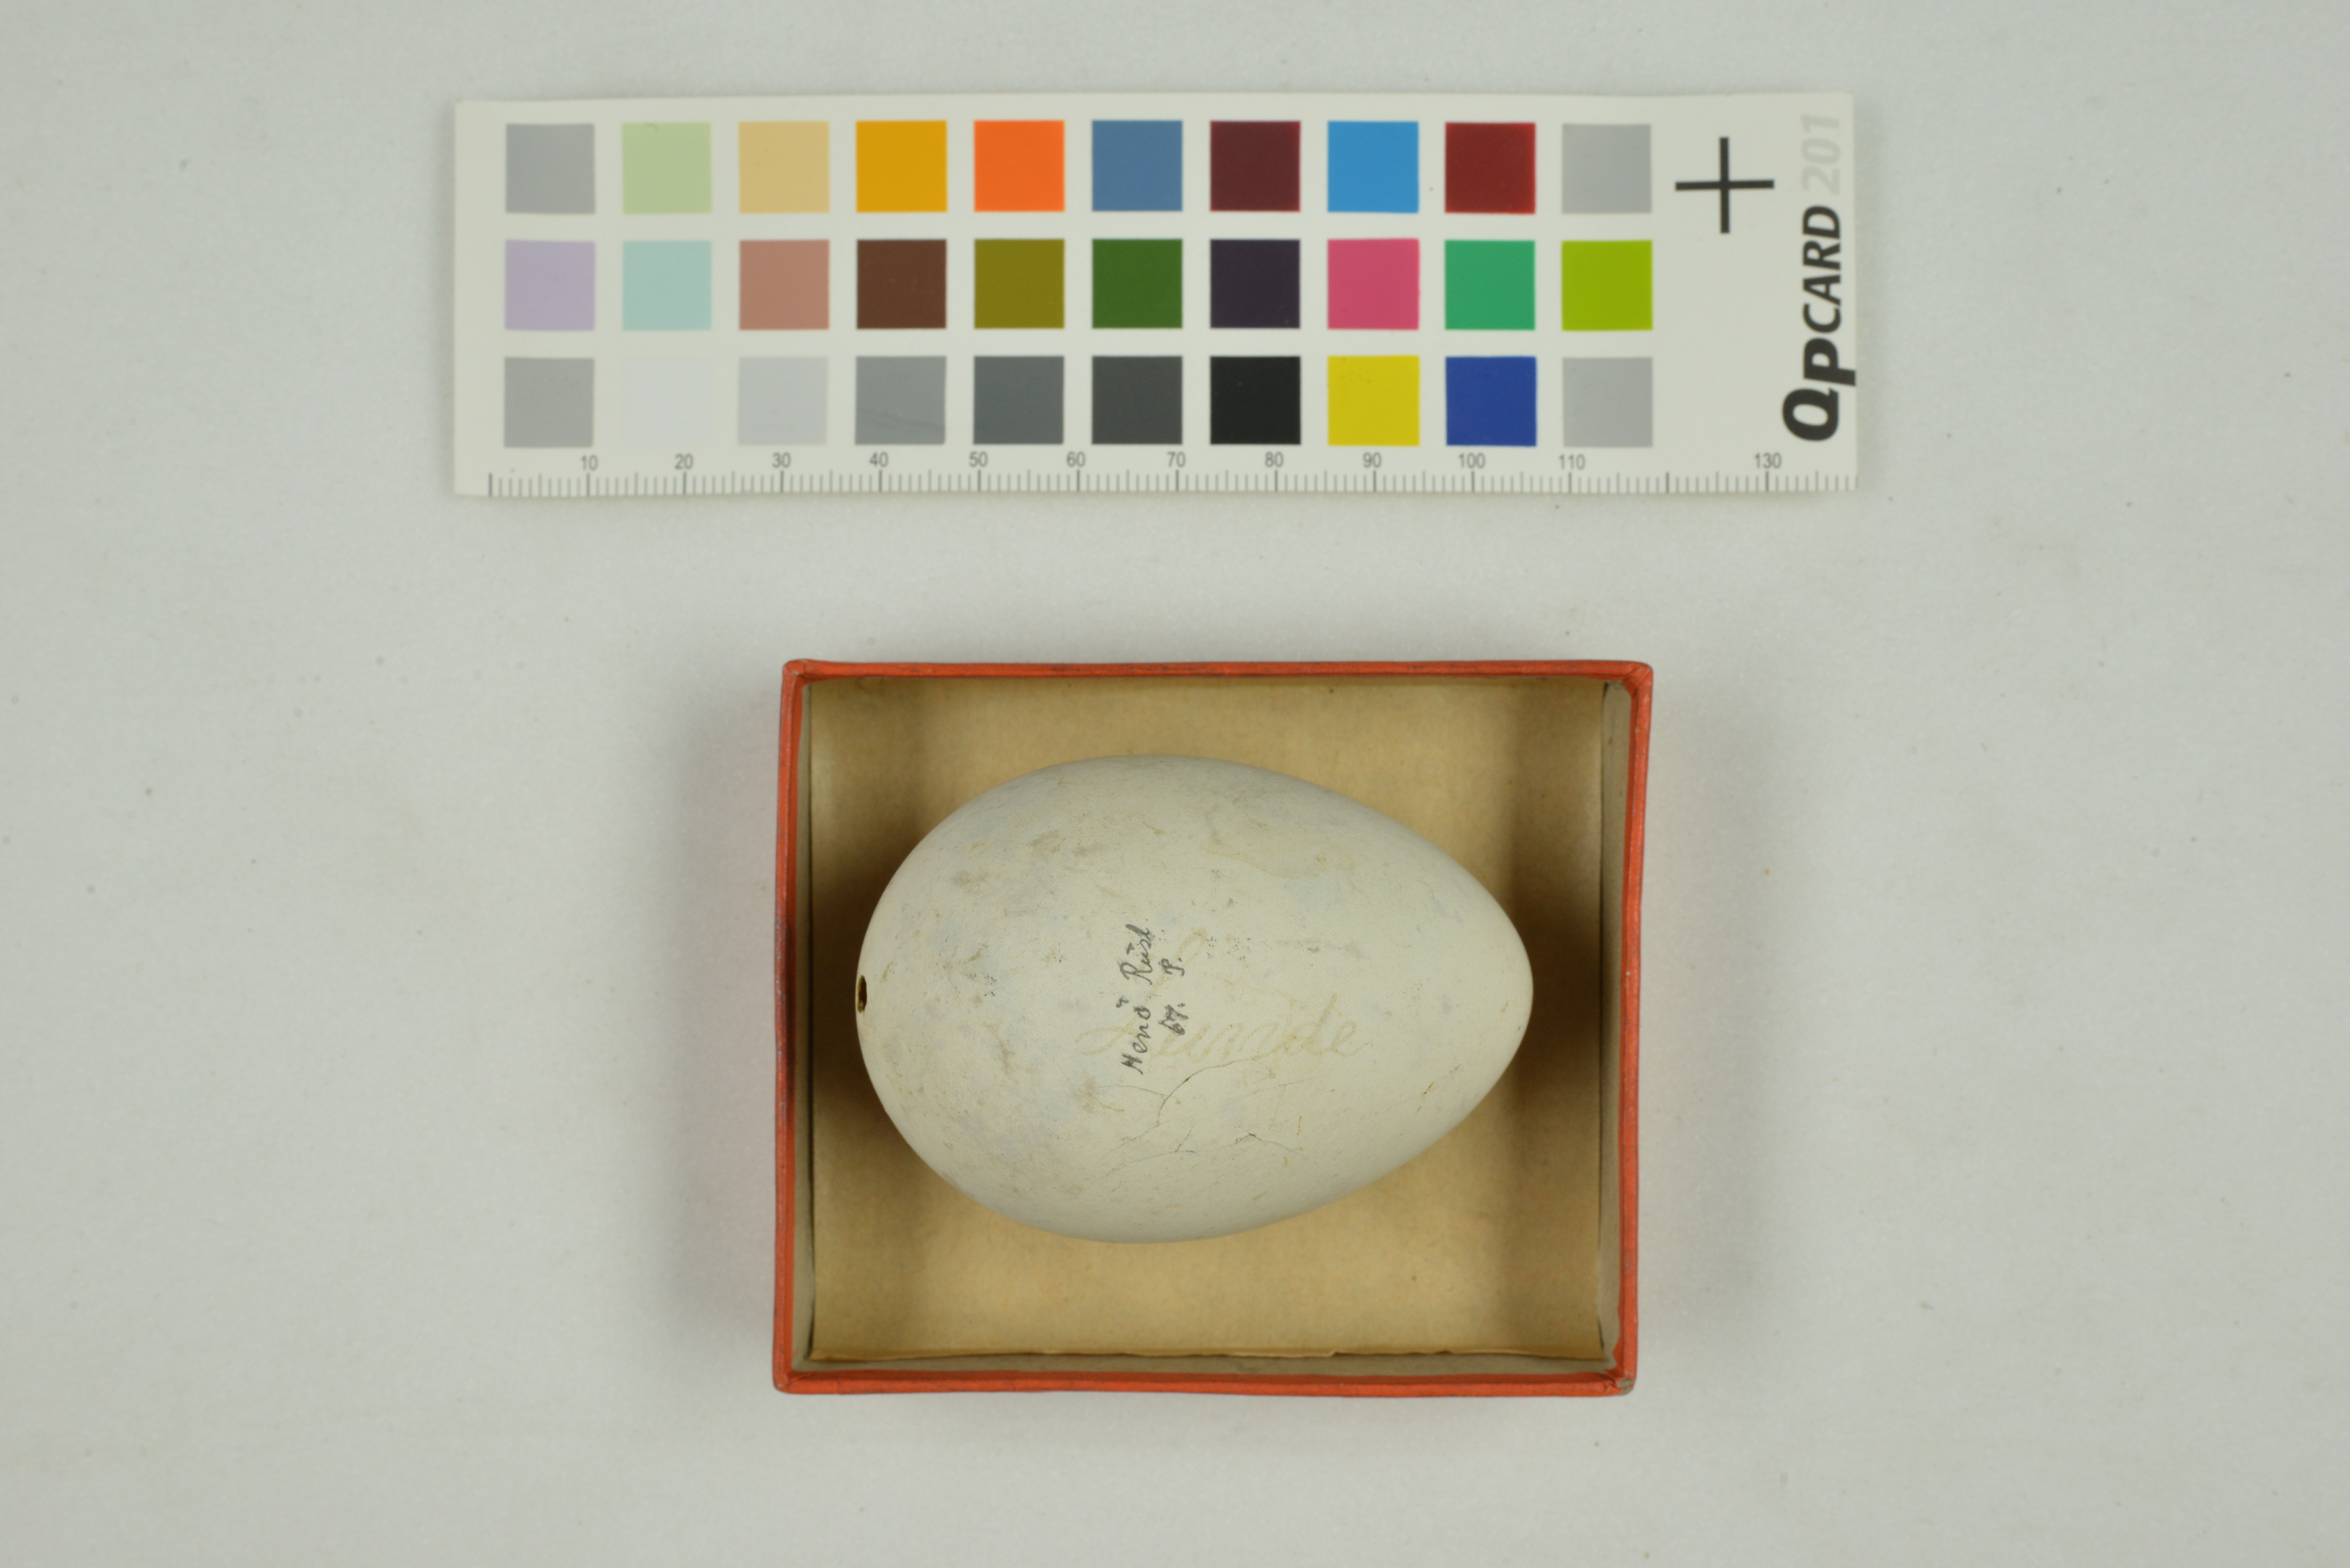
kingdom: Animalia
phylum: Chordata
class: Aves
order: Charadriiformes
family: Alcidae
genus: Fratercula
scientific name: Fratercula arctica
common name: Atlantic puffin
